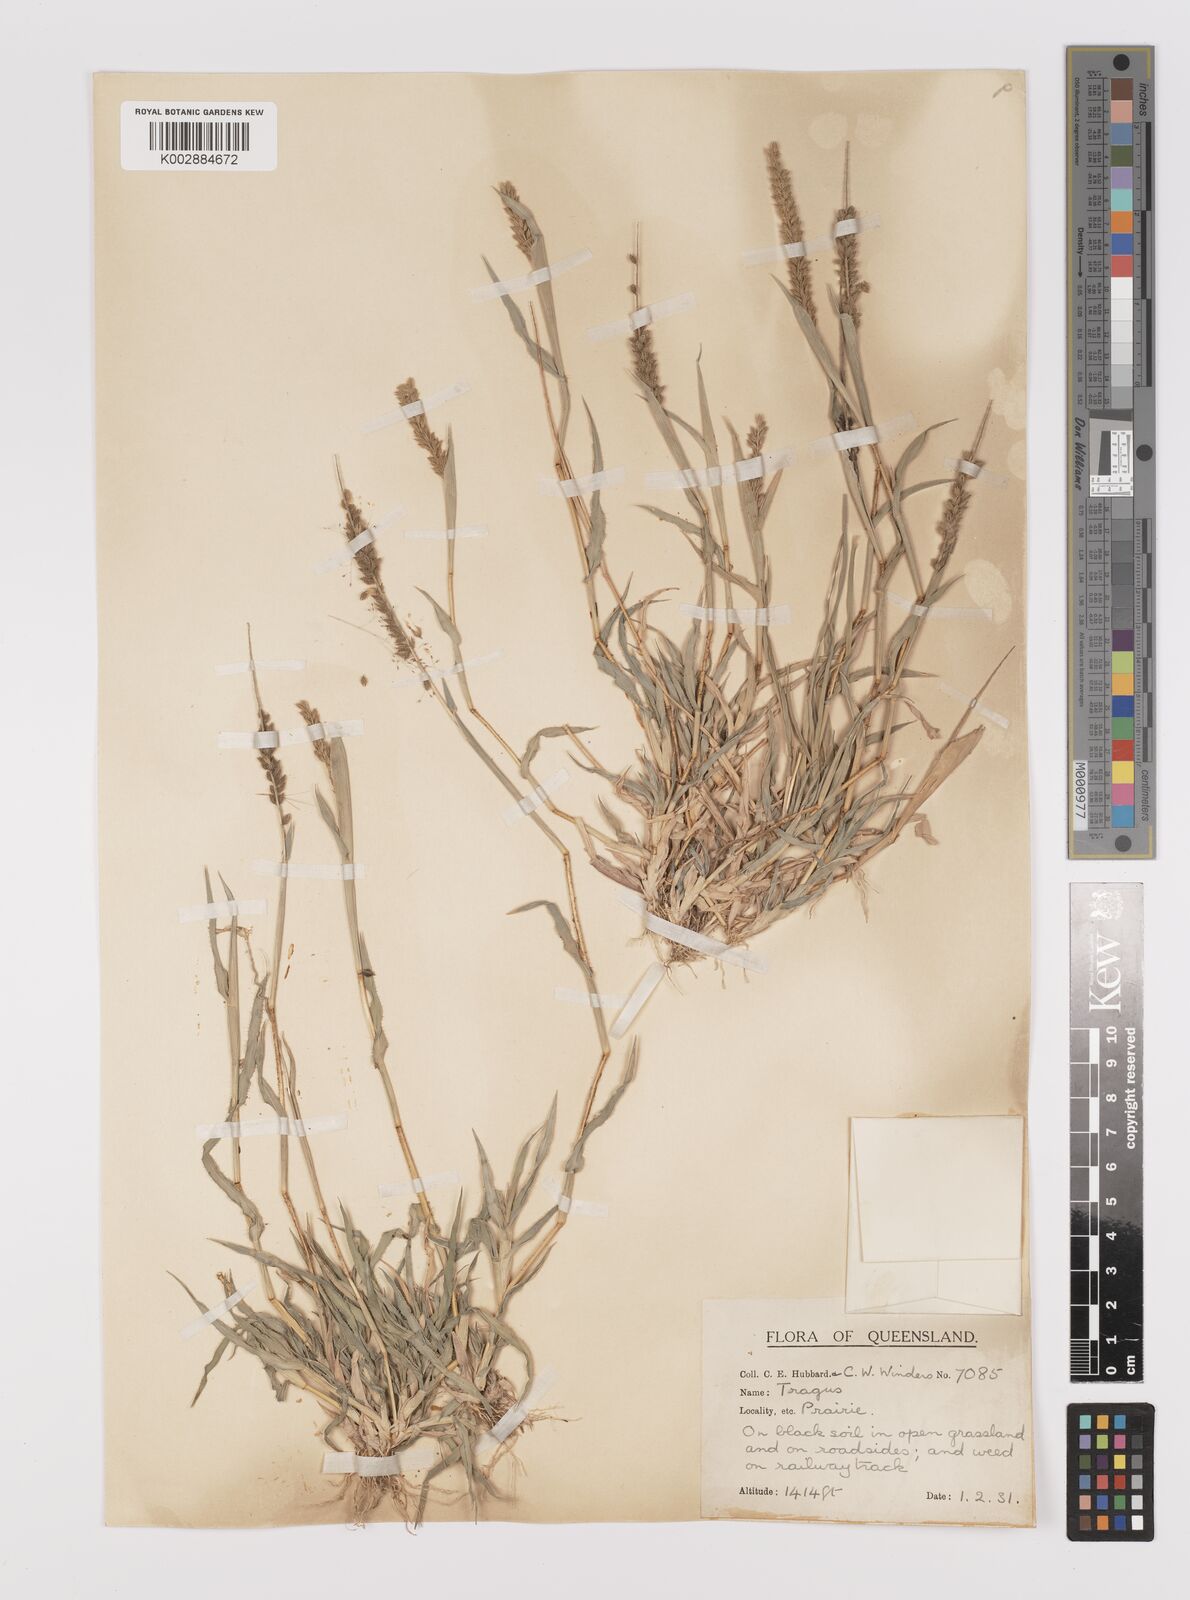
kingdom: Plantae
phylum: Tracheophyta
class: Liliopsida
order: Poales
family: Poaceae
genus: Tragus
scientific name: Tragus australianus
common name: Australian bur-grass
